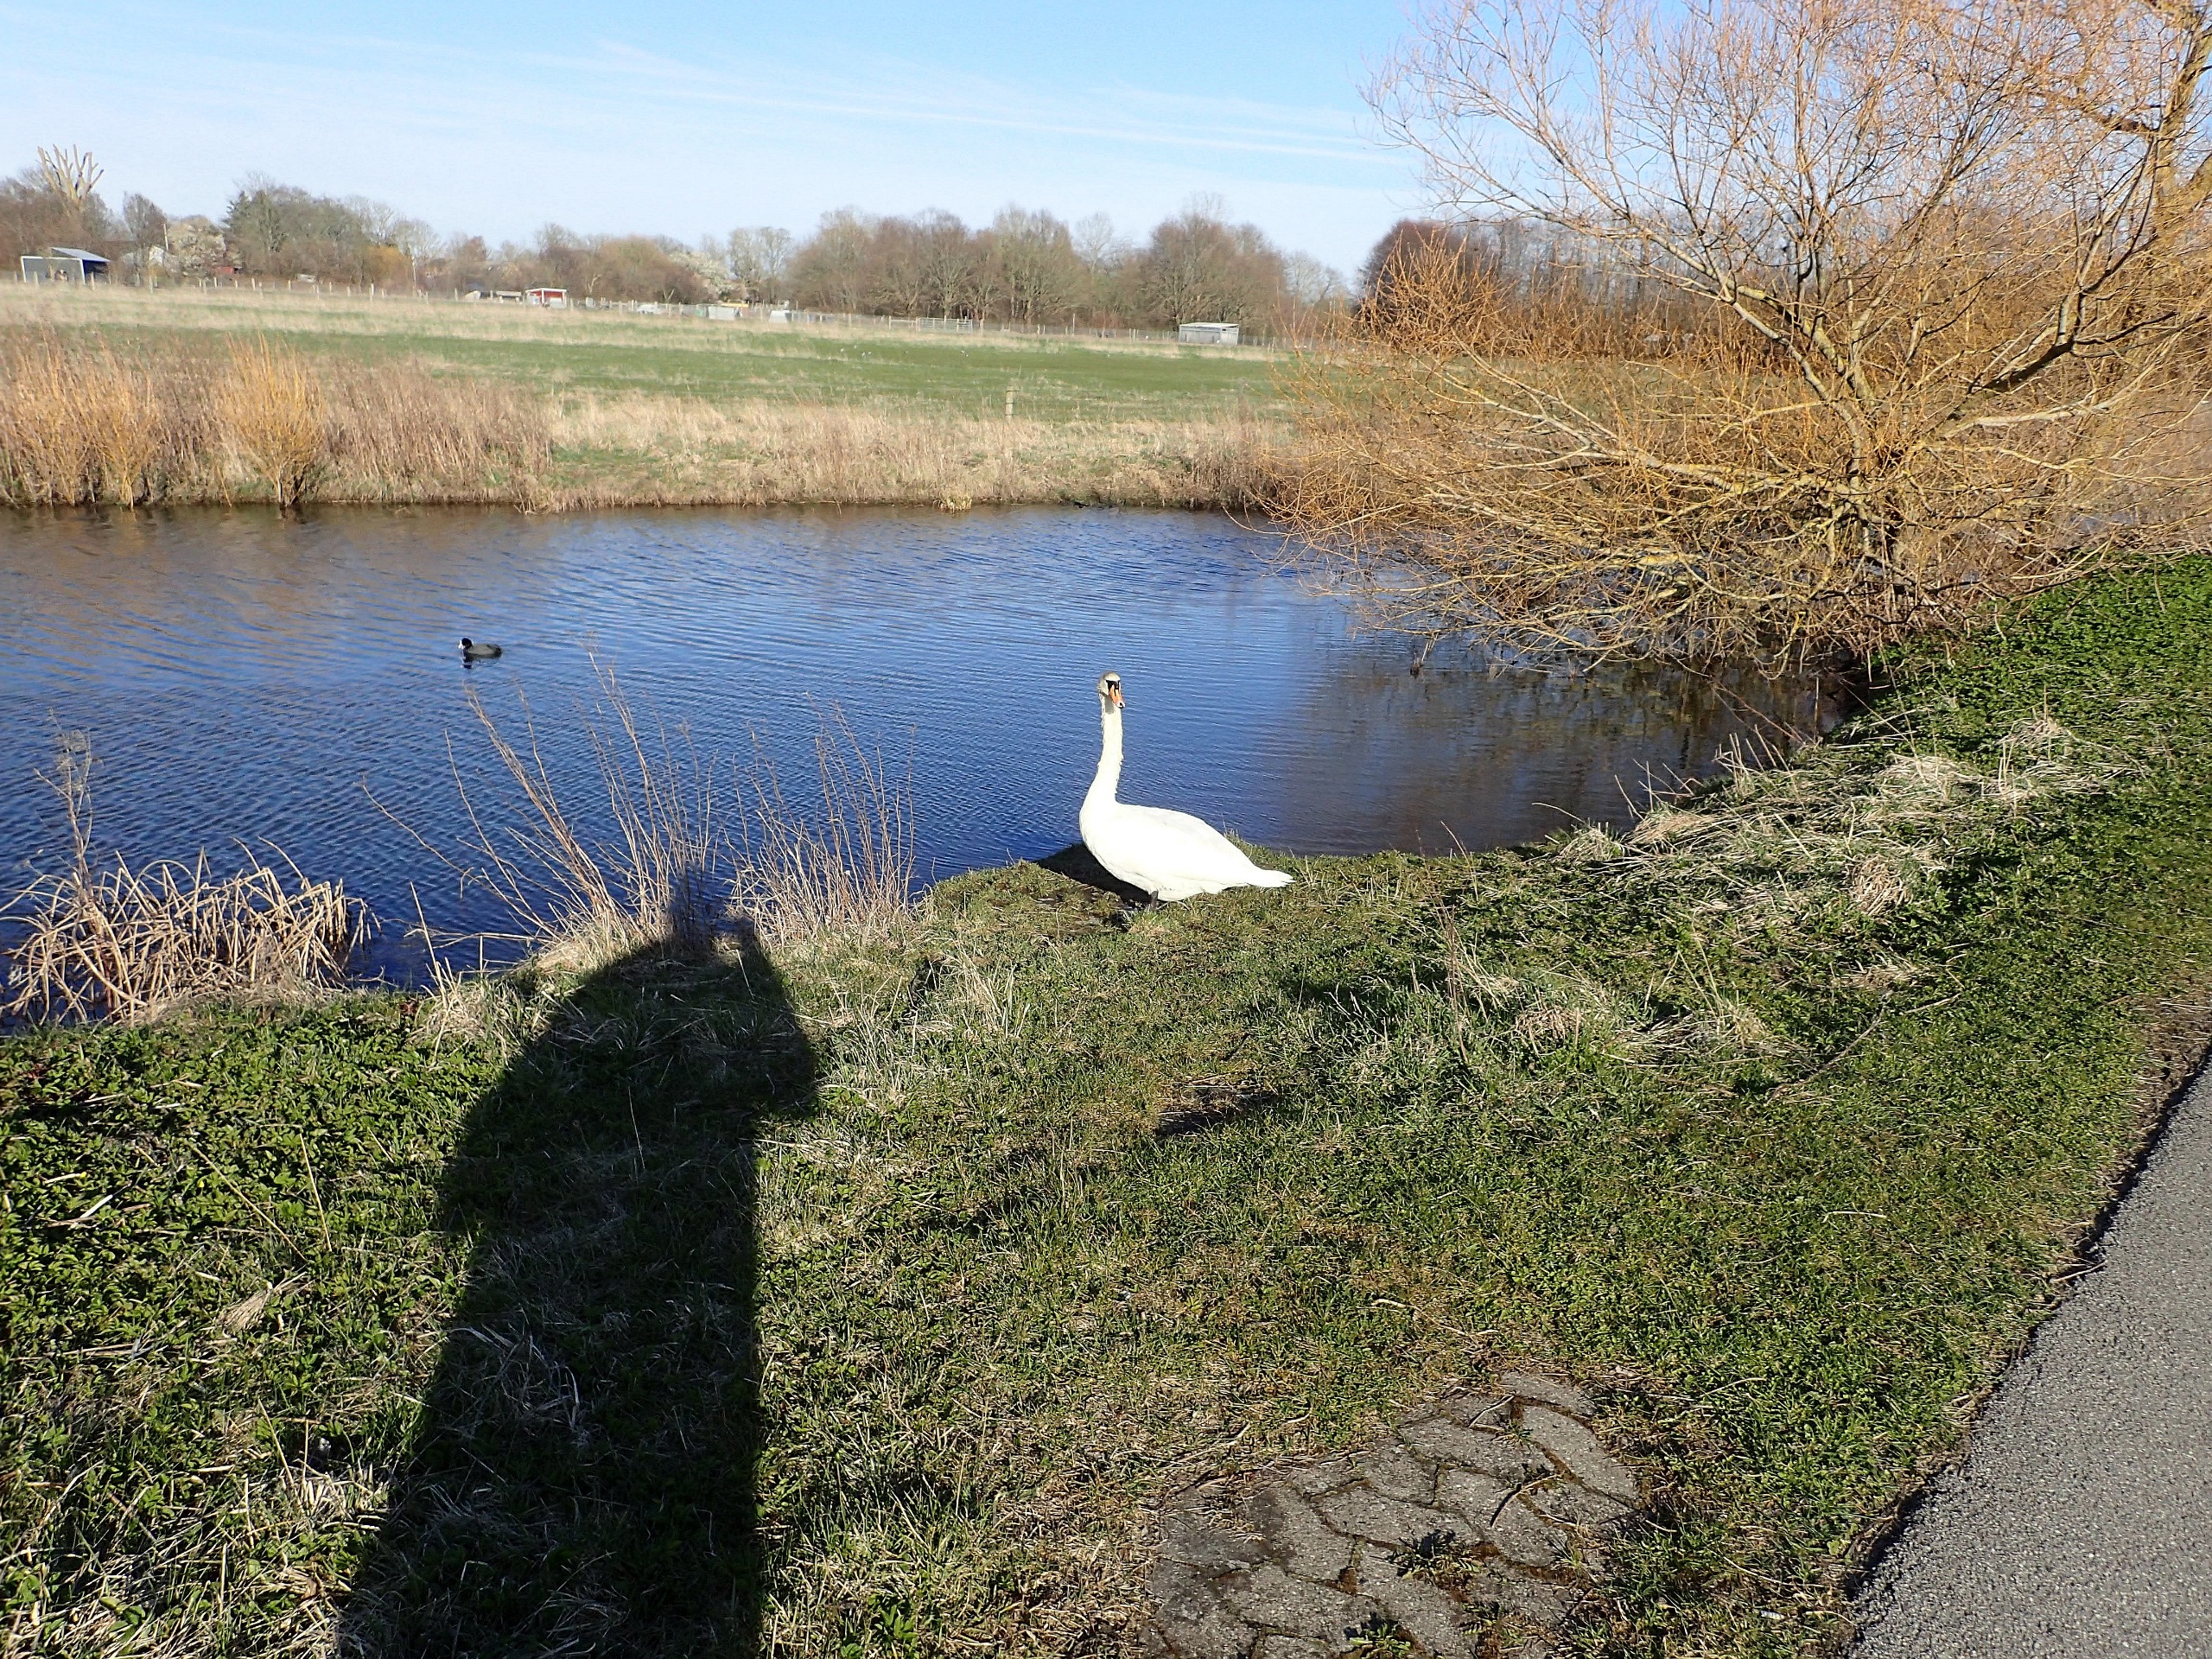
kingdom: Animalia
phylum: Chordata
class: Aves
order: Anseriformes
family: Anatidae
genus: Cygnus
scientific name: Cygnus olor
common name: Knopsvane
